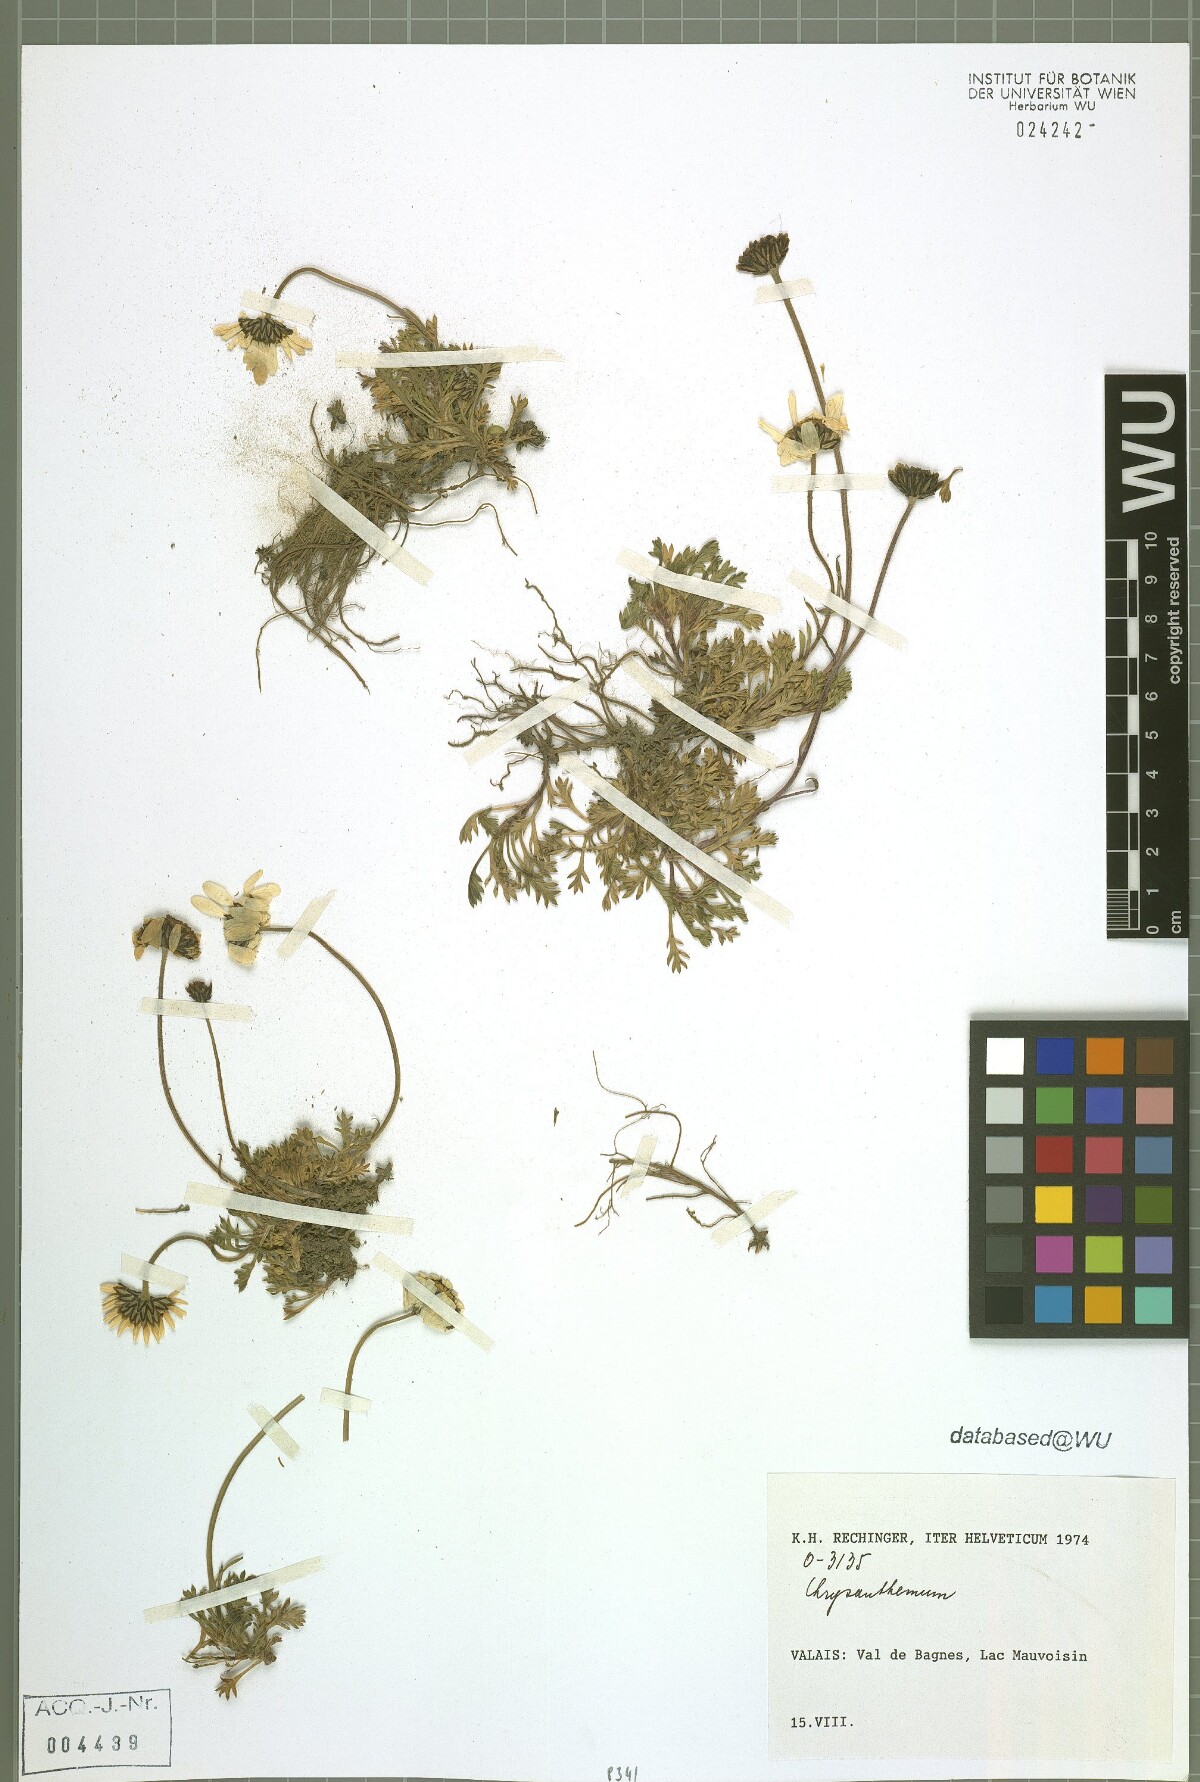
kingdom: Plantae
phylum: Tracheophyta
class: Magnoliopsida
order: Asterales
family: Asteraceae
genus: Chrysanthemum
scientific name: Chrysanthemum
